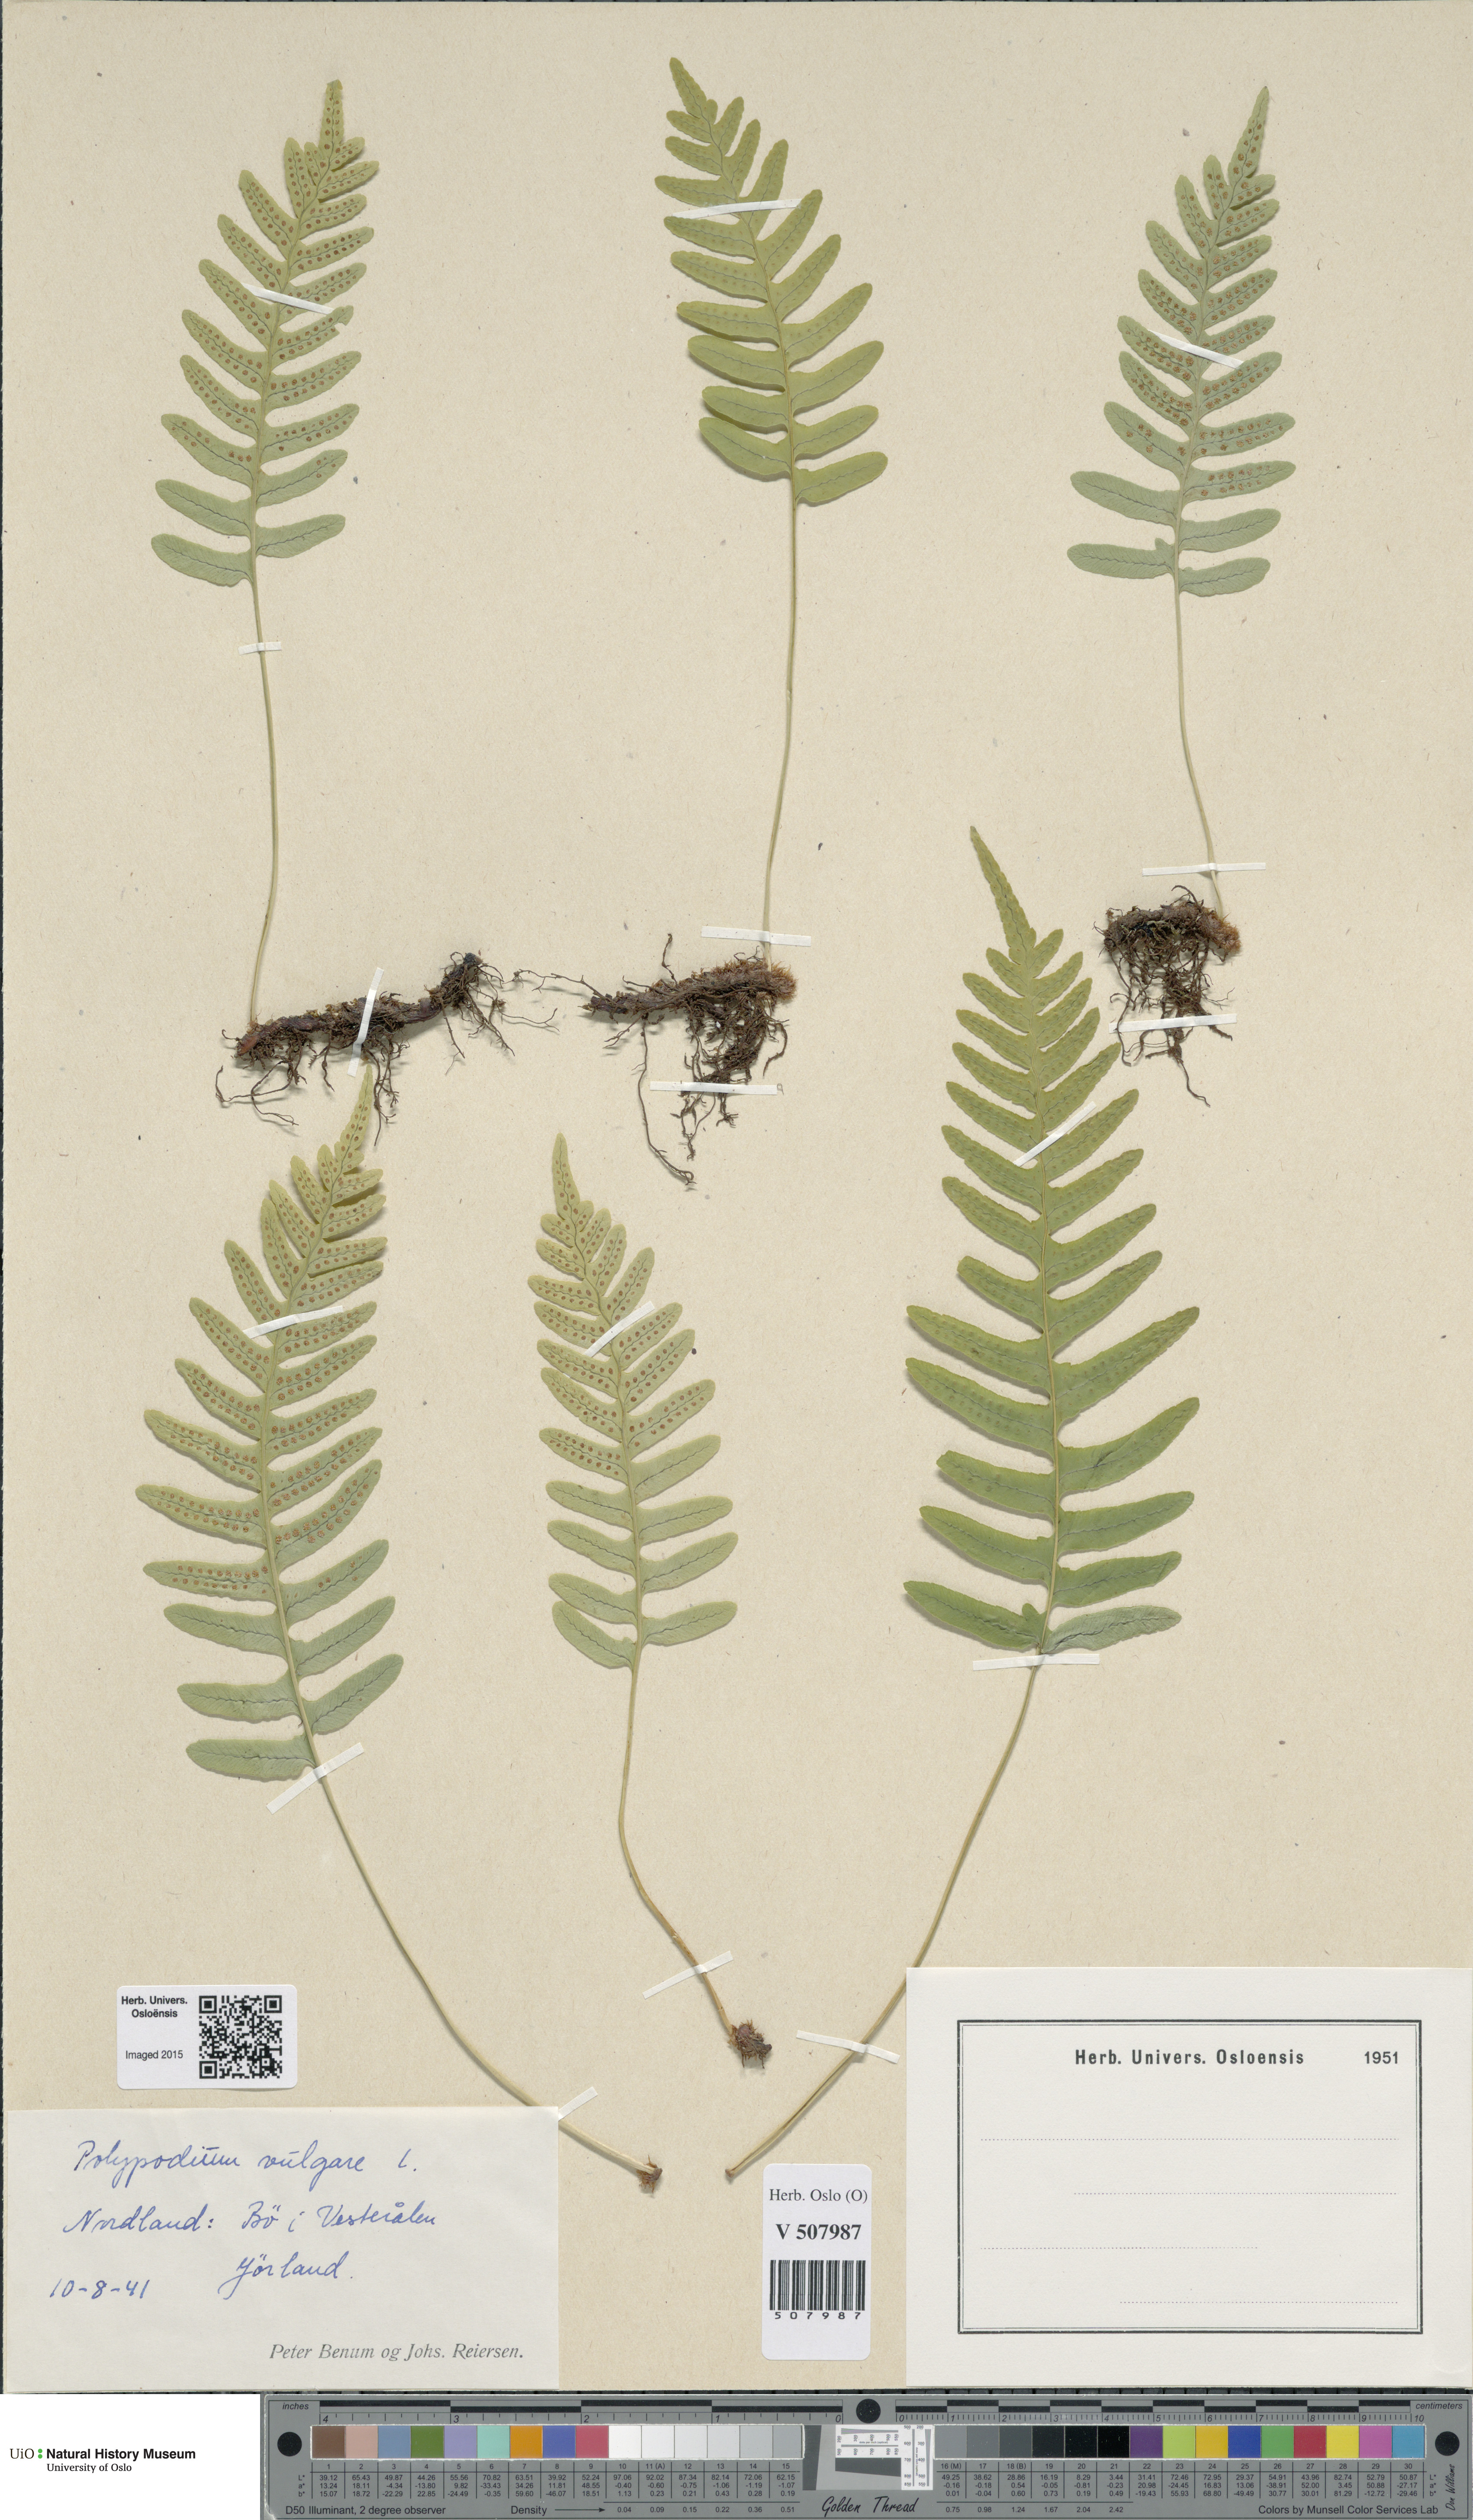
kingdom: Plantae
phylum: Tracheophyta
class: Polypodiopsida
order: Polypodiales
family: Polypodiaceae
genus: Polypodium
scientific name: Polypodium vulgare
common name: Common polypody
